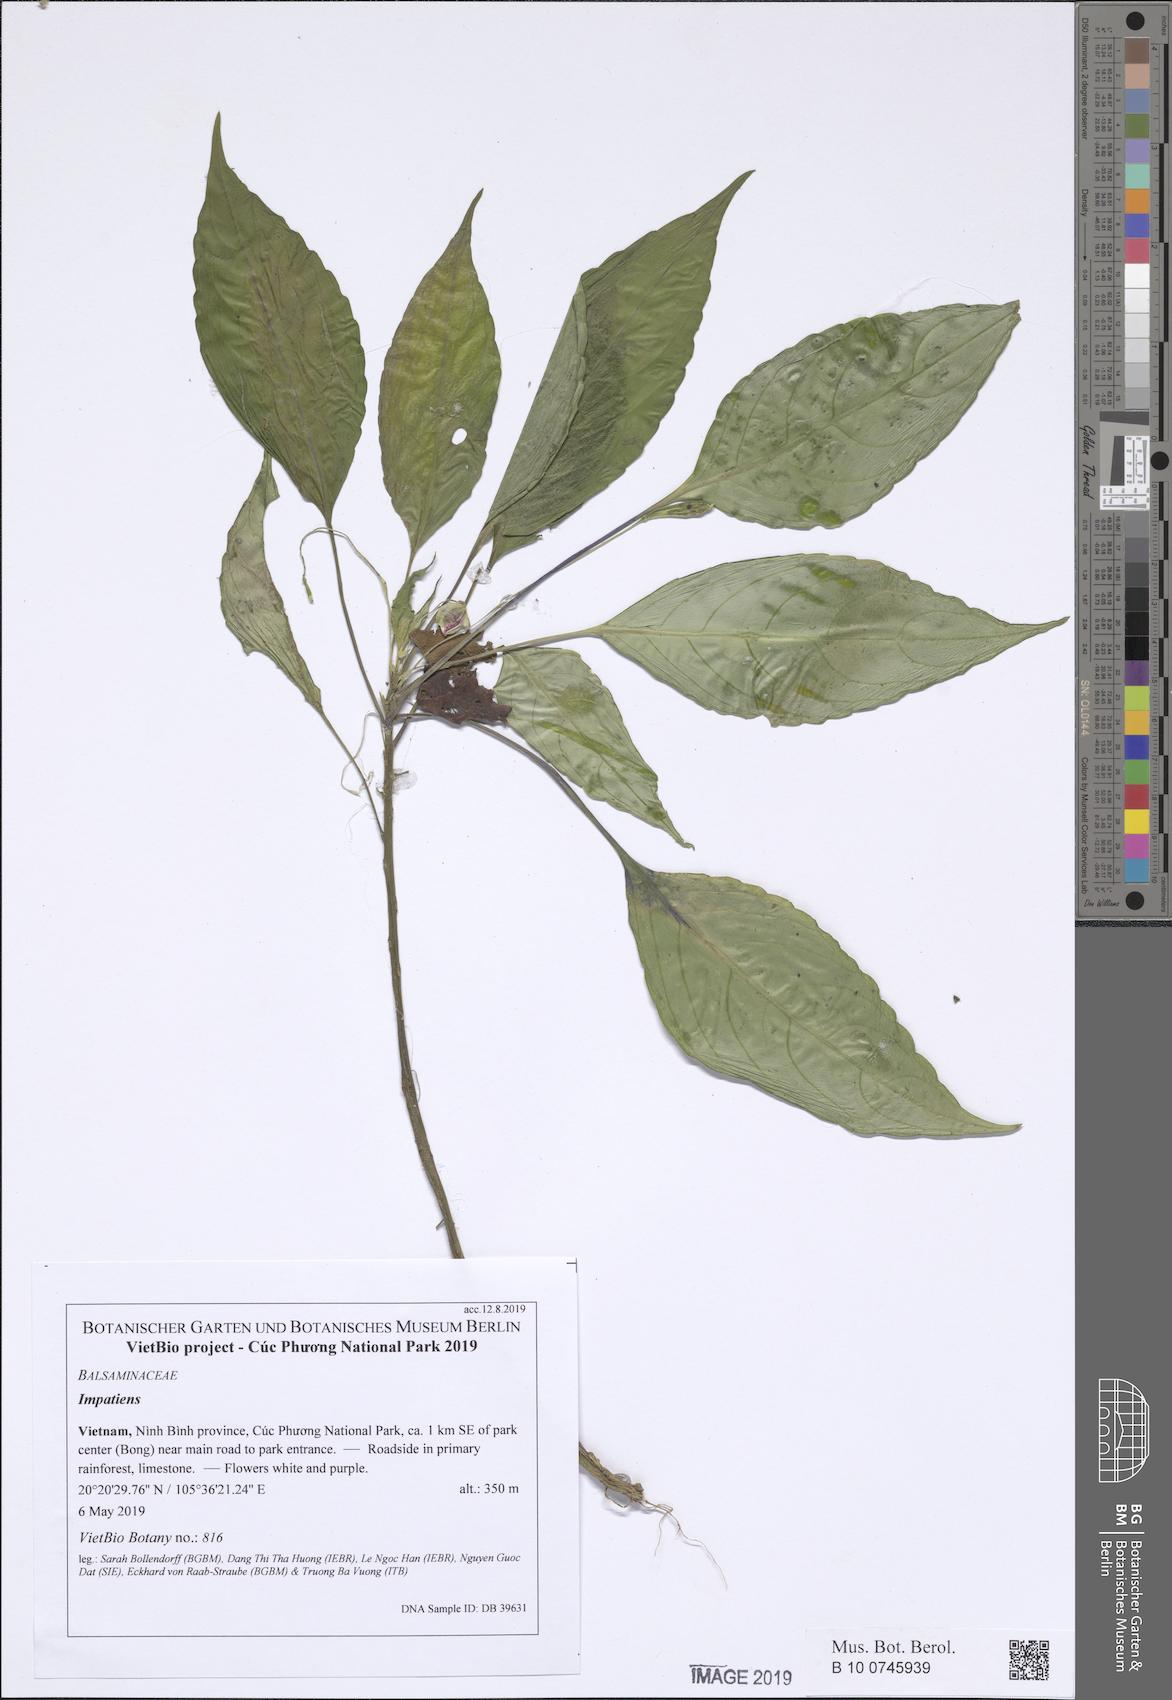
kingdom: Plantae
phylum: Tracheophyta
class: Magnoliopsida
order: Ericales
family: Balsaminaceae
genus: Impatiens
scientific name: Impatiens bonii
